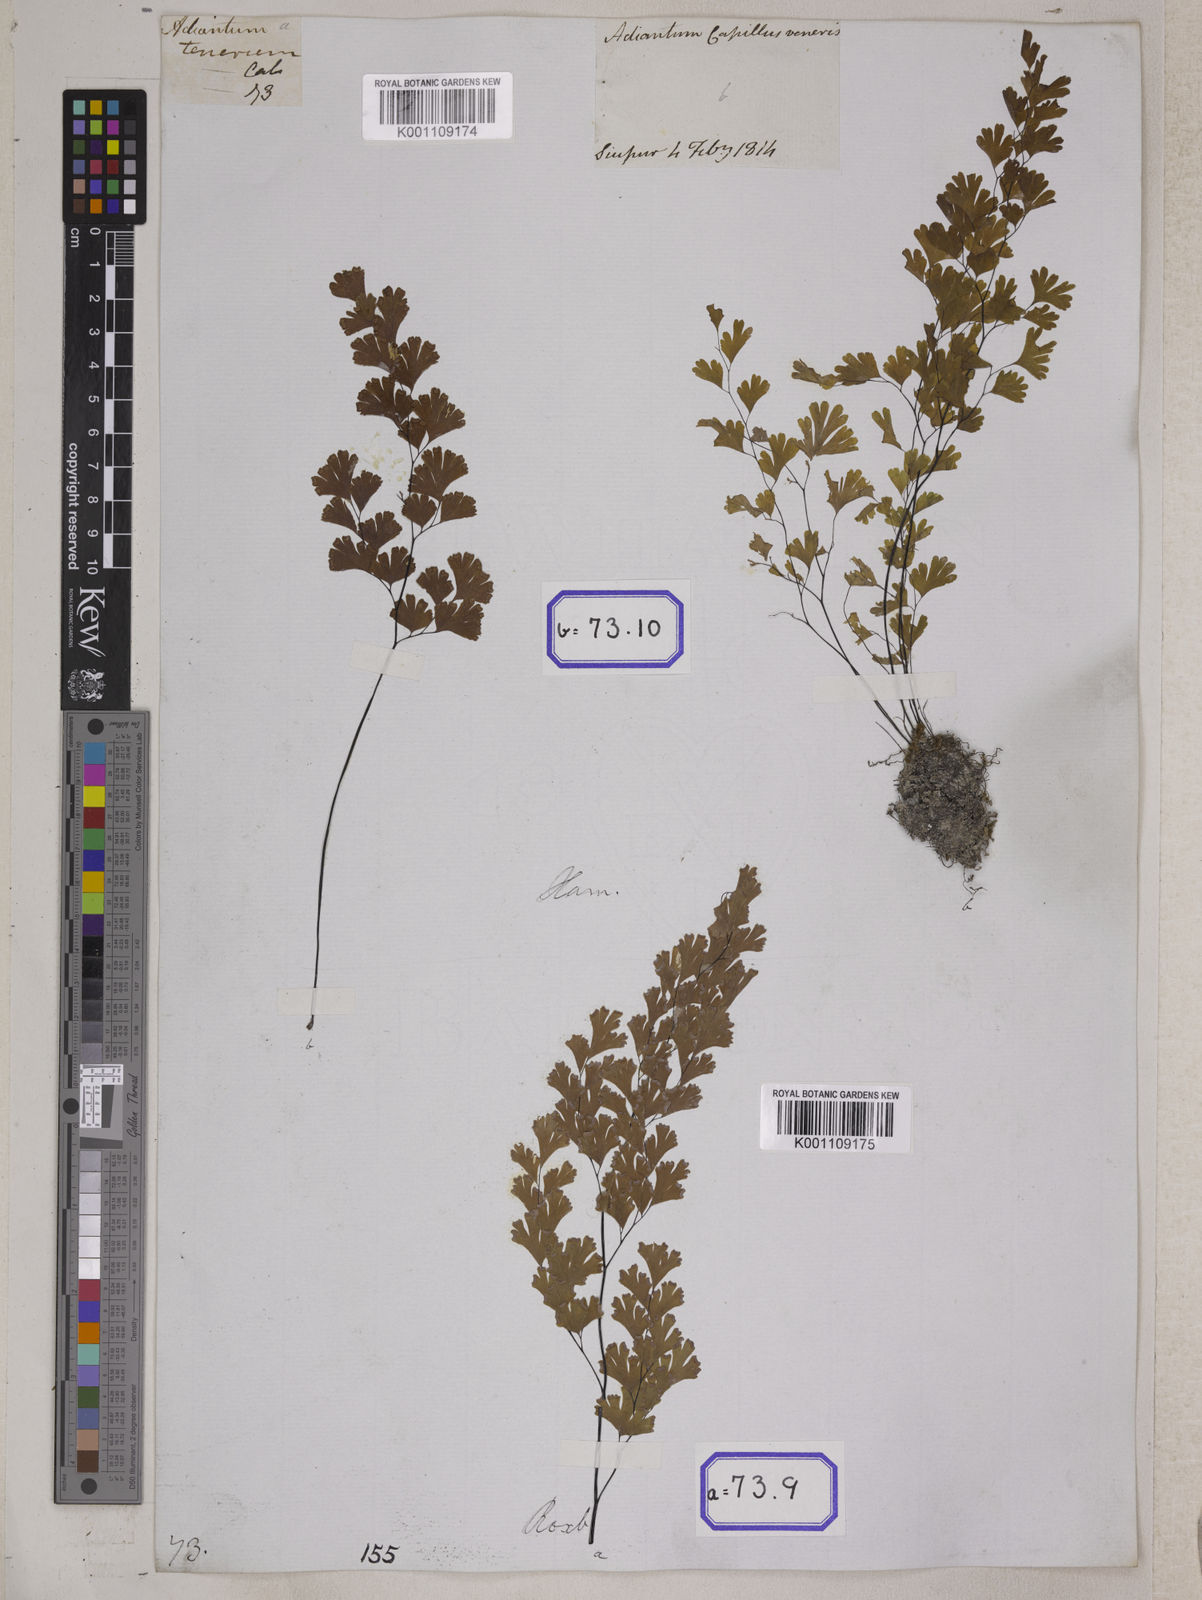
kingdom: Plantae
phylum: Tracheophyta
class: Polypodiopsida
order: Polypodiales
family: Pteridaceae
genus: Adiantum
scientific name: Adiantum
